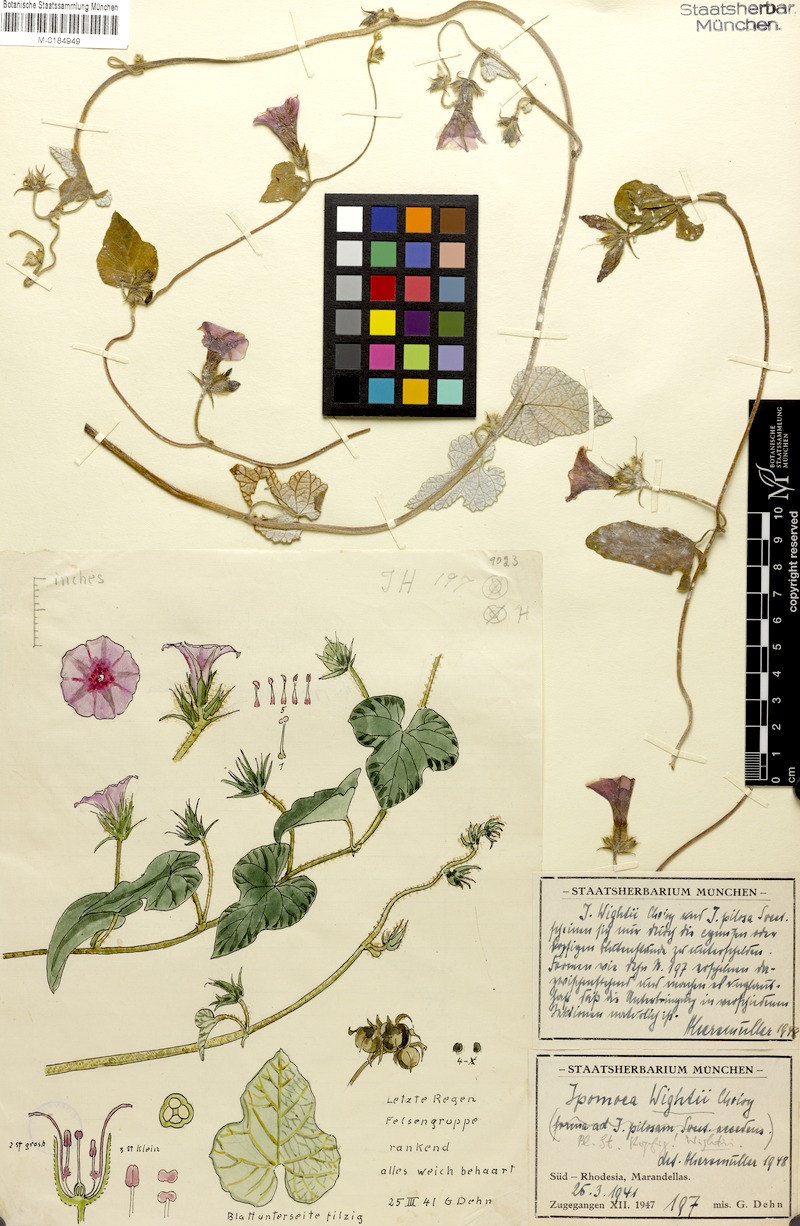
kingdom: Plantae
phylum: Tracheophyta
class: Magnoliopsida
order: Solanales
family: Convolvulaceae
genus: Ipomoea
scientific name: Ipomoea wightii
